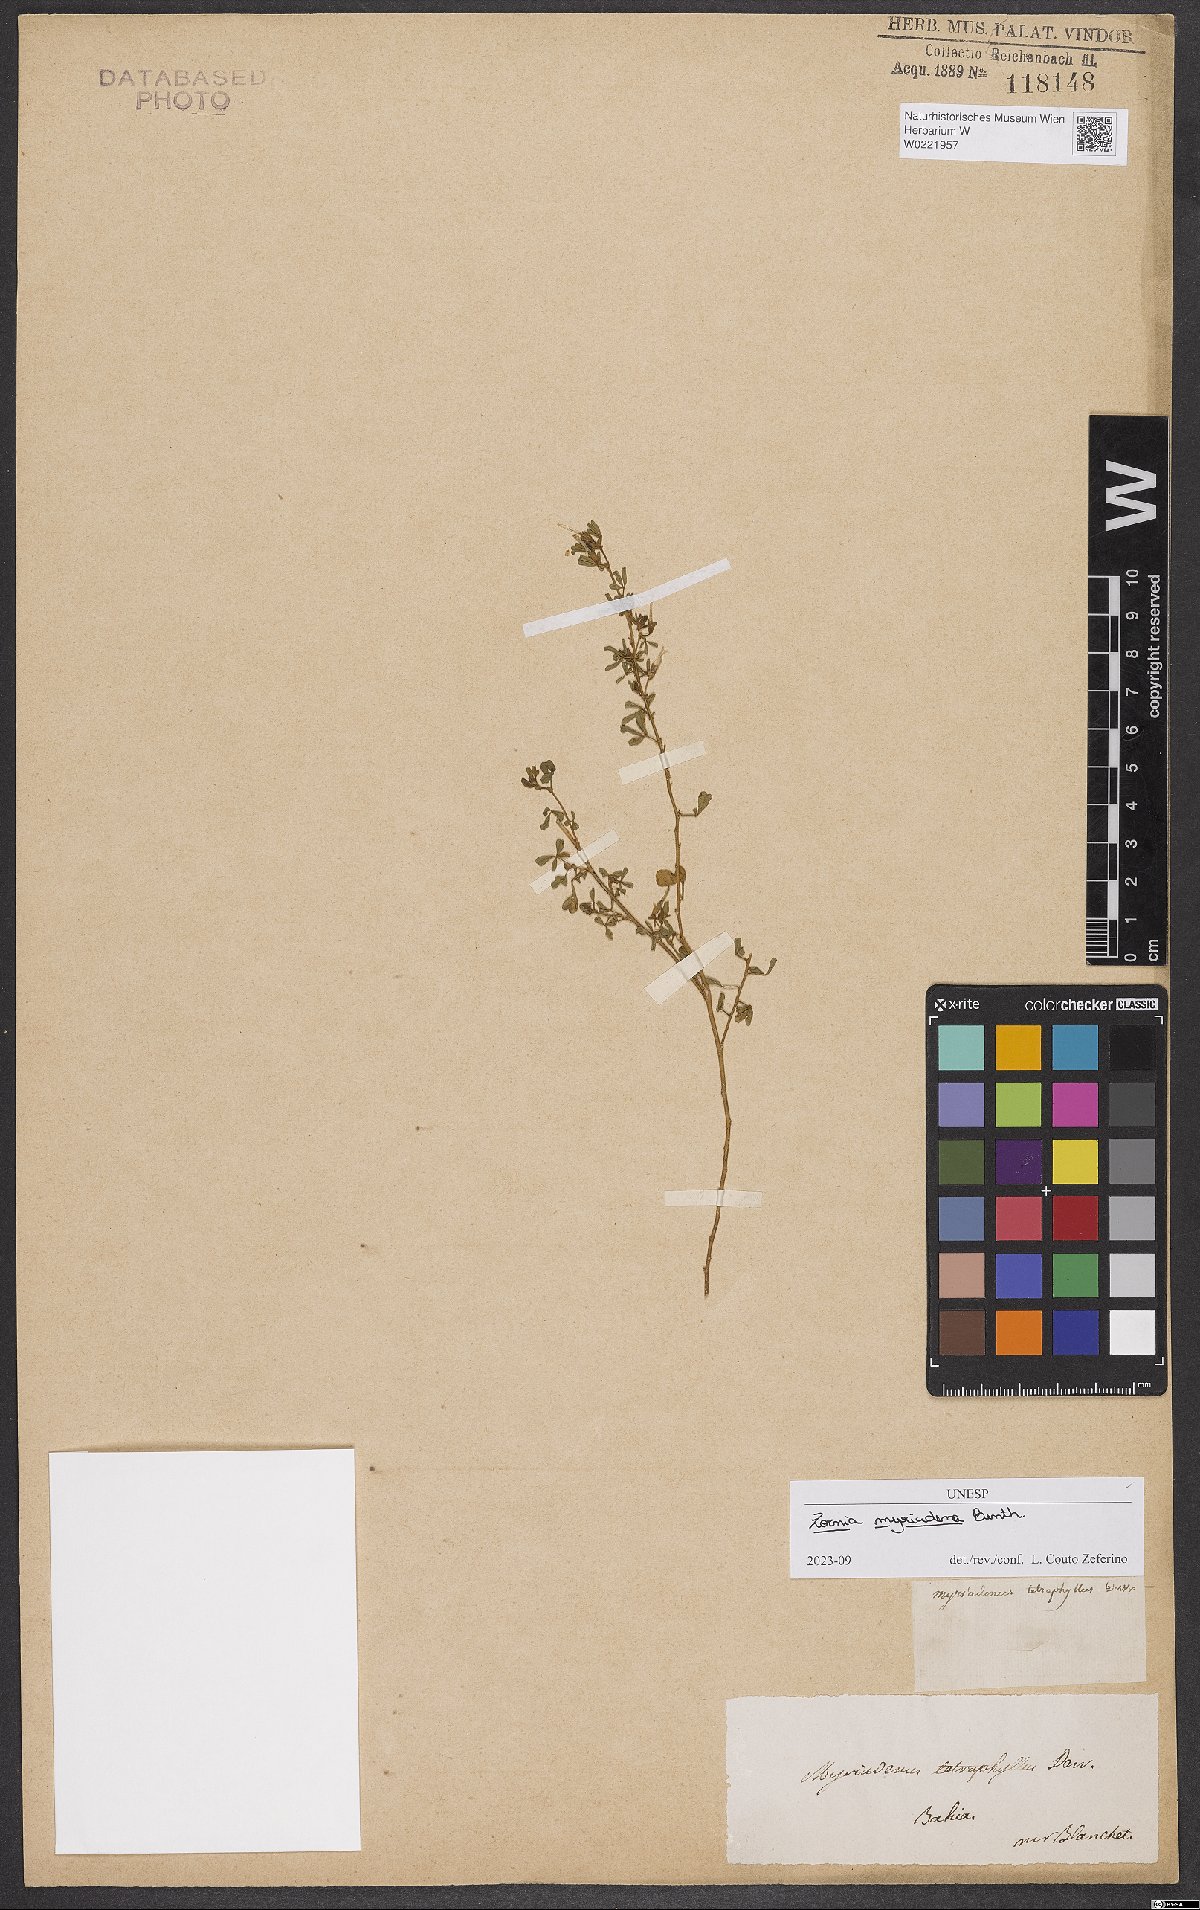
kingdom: Plantae
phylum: Tracheophyta
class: Magnoliopsida
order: Fabales
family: Fabaceae
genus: Zornia
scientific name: Zornia myriadena
